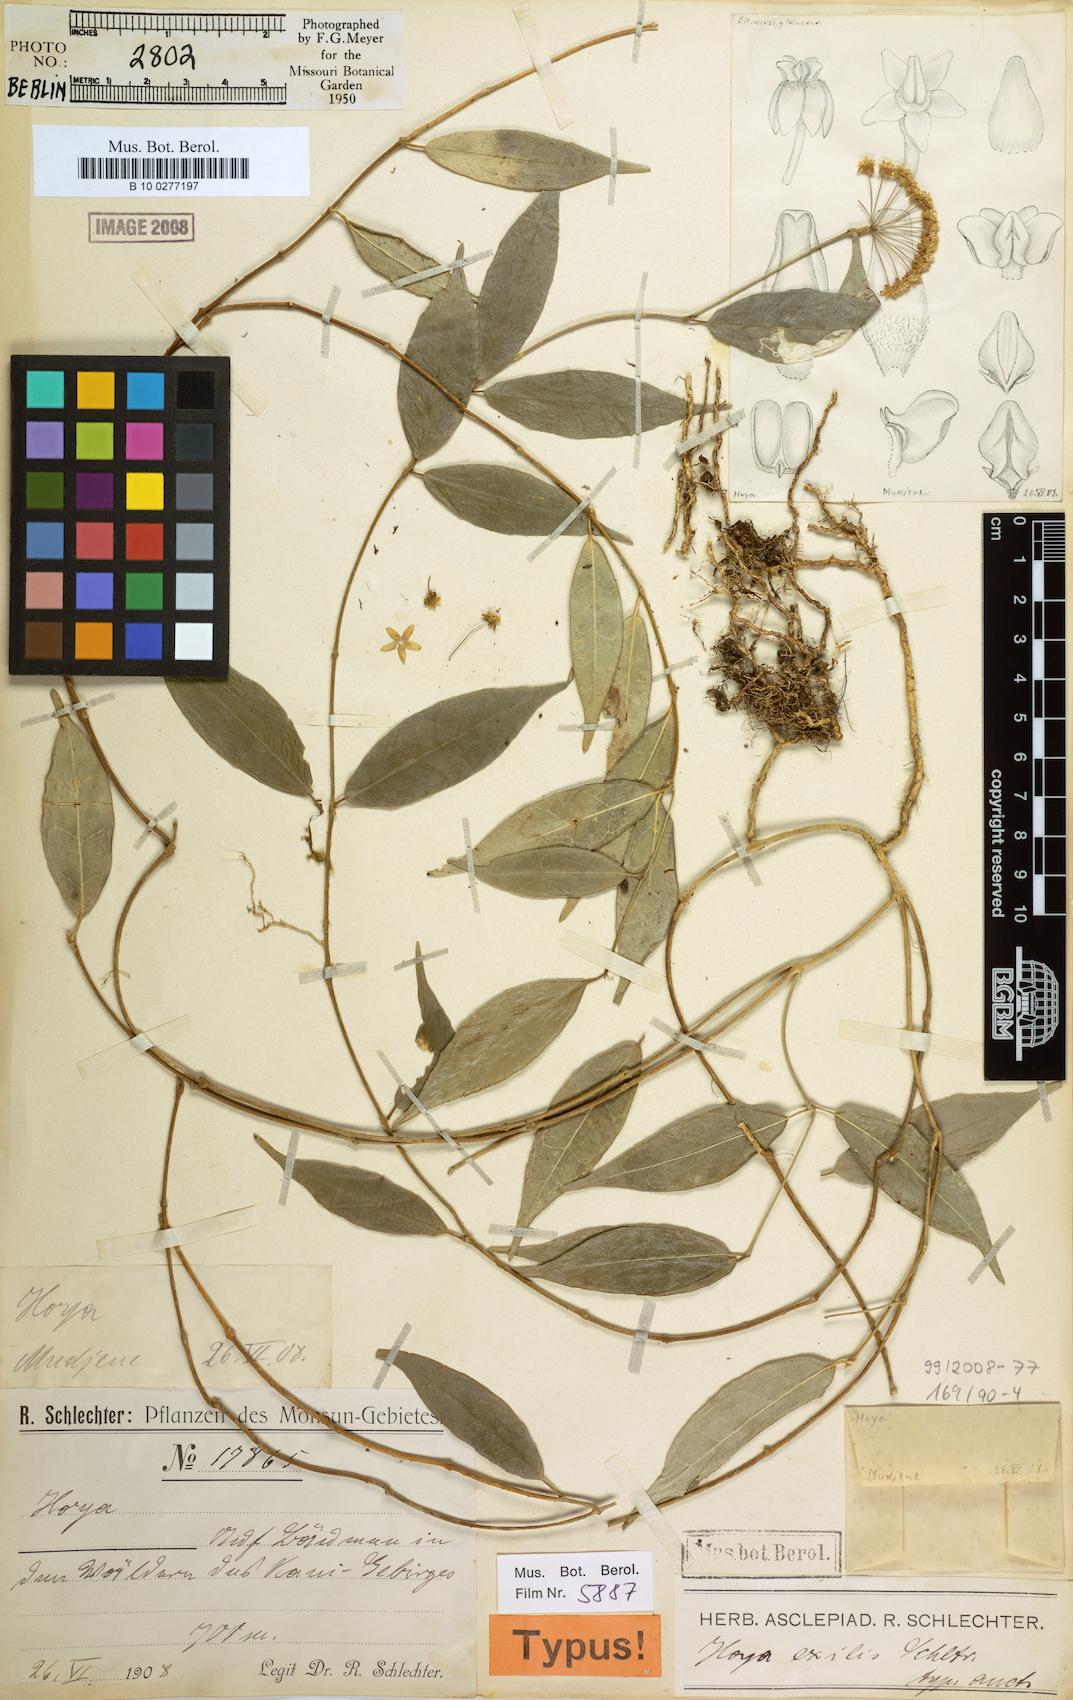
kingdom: Plantae
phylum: Tracheophyta
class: Magnoliopsida
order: Gentianales
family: Apocynaceae
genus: Hoya
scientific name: Hoya exilis
